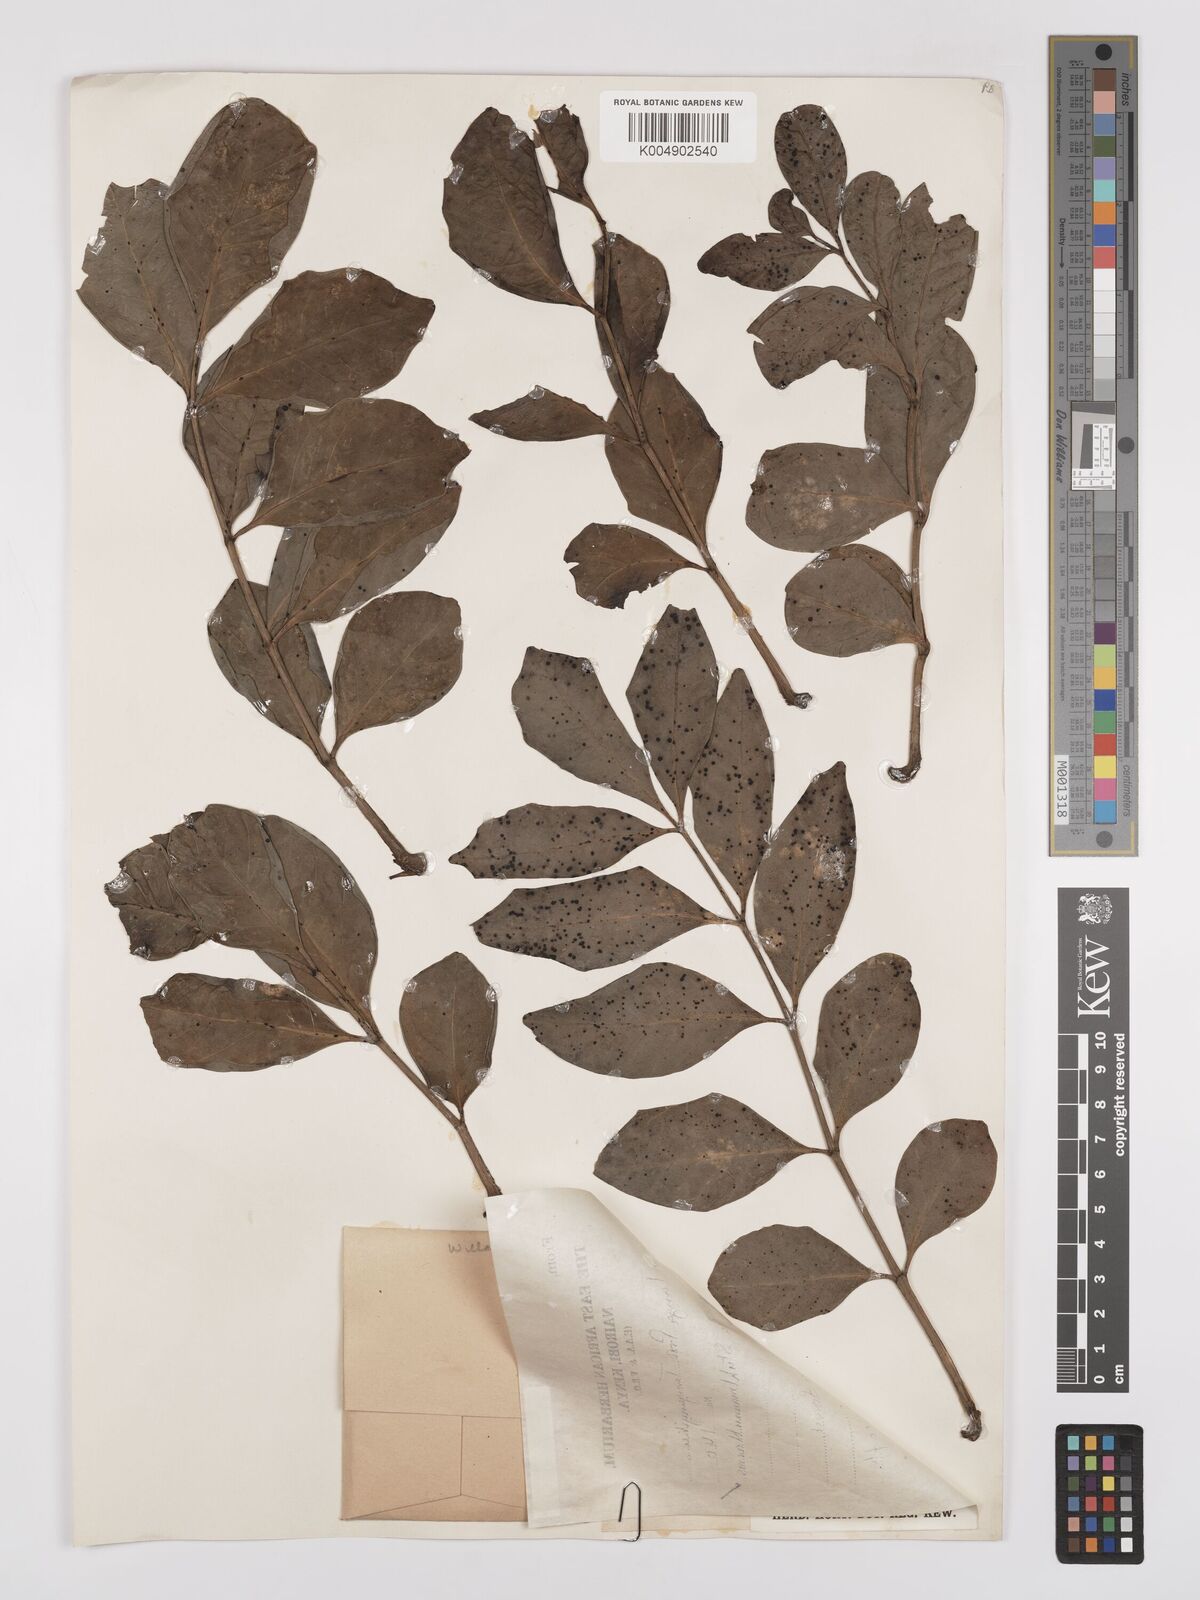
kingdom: Plantae
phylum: Tracheophyta
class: Magnoliopsida
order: Apiales
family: Araliaceae
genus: Polyscias
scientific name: Polyscias stuhlmannii
